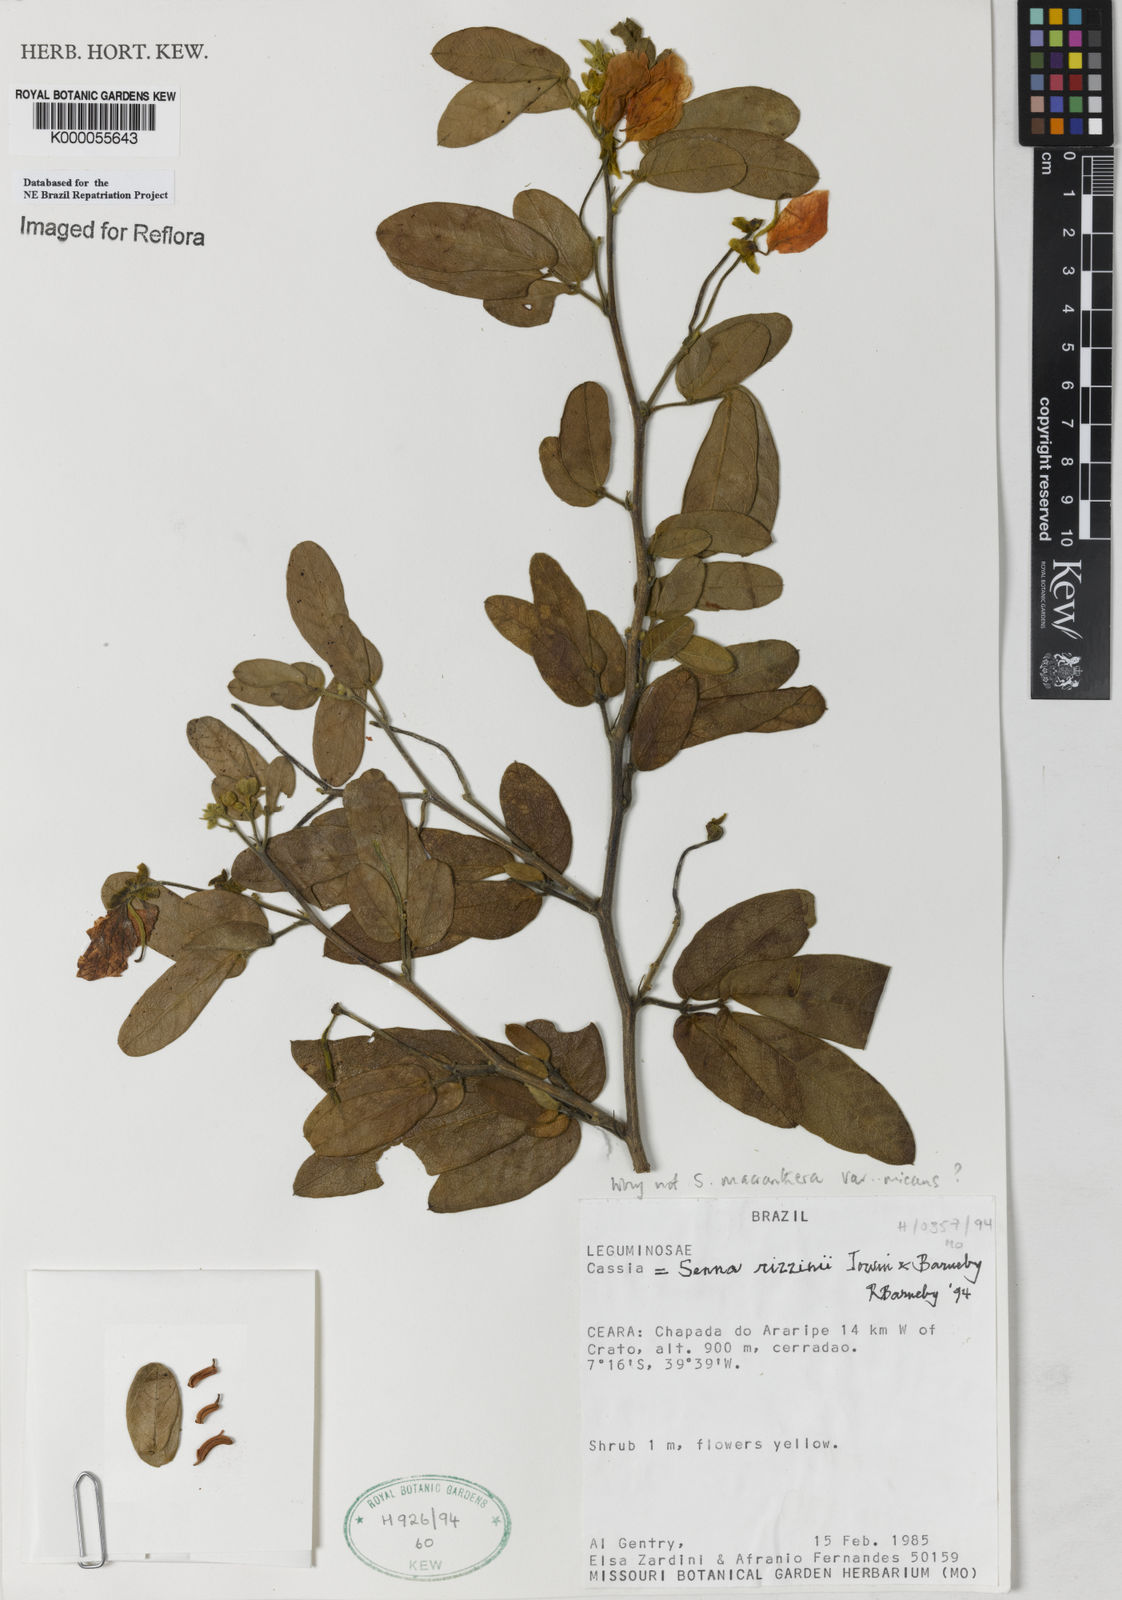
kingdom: Plantae
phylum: Tracheophyta
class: Magnoliopsida
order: Fabales
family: Fabaceae
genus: Senna
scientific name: Senna macranthera
